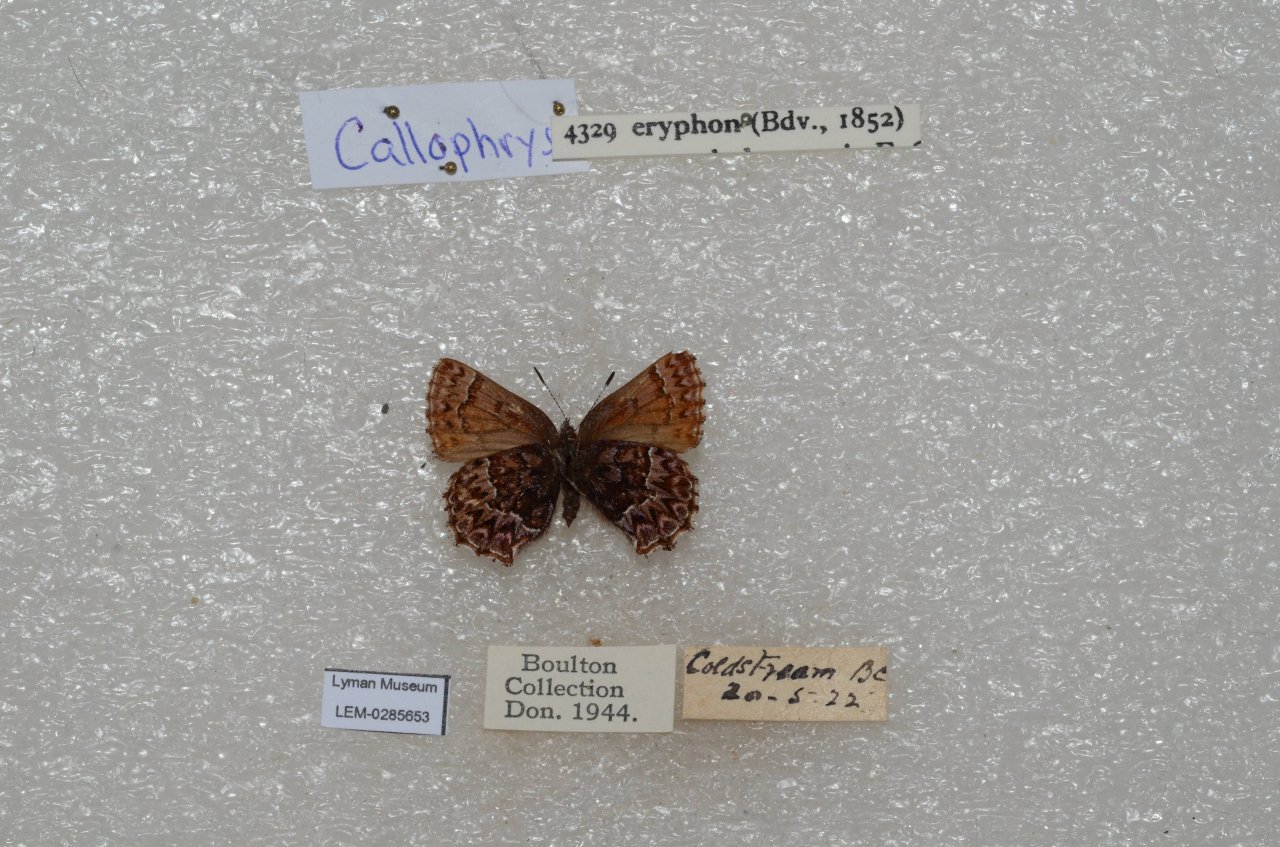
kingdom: Animalia
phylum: Arthropoda
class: Insecta
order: Lepidoptera
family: Lycaenidae
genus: Incisalia
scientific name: Incisalia eryphon
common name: Western Pine Elfin
